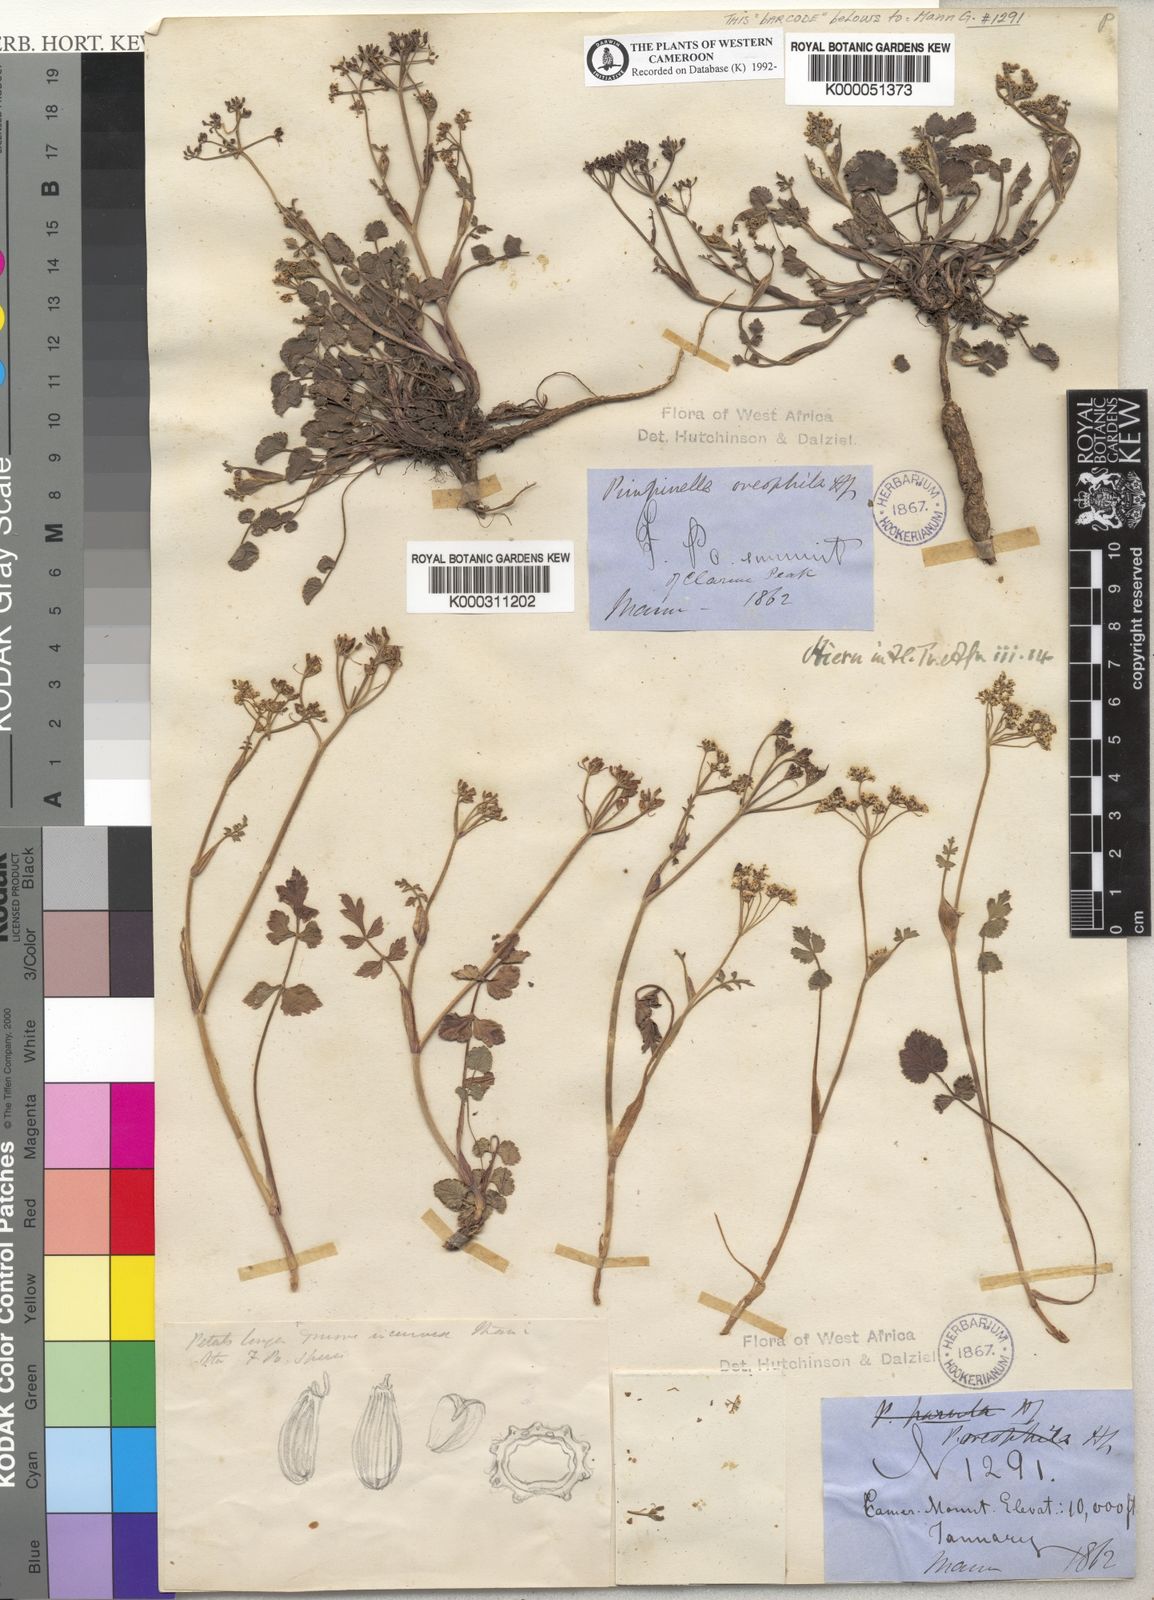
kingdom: Plantae
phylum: Tracheophyta
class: Magnoliopsida
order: Apiales
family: Apiaceae
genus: Pimpinella
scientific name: Pimpinella oreophila
